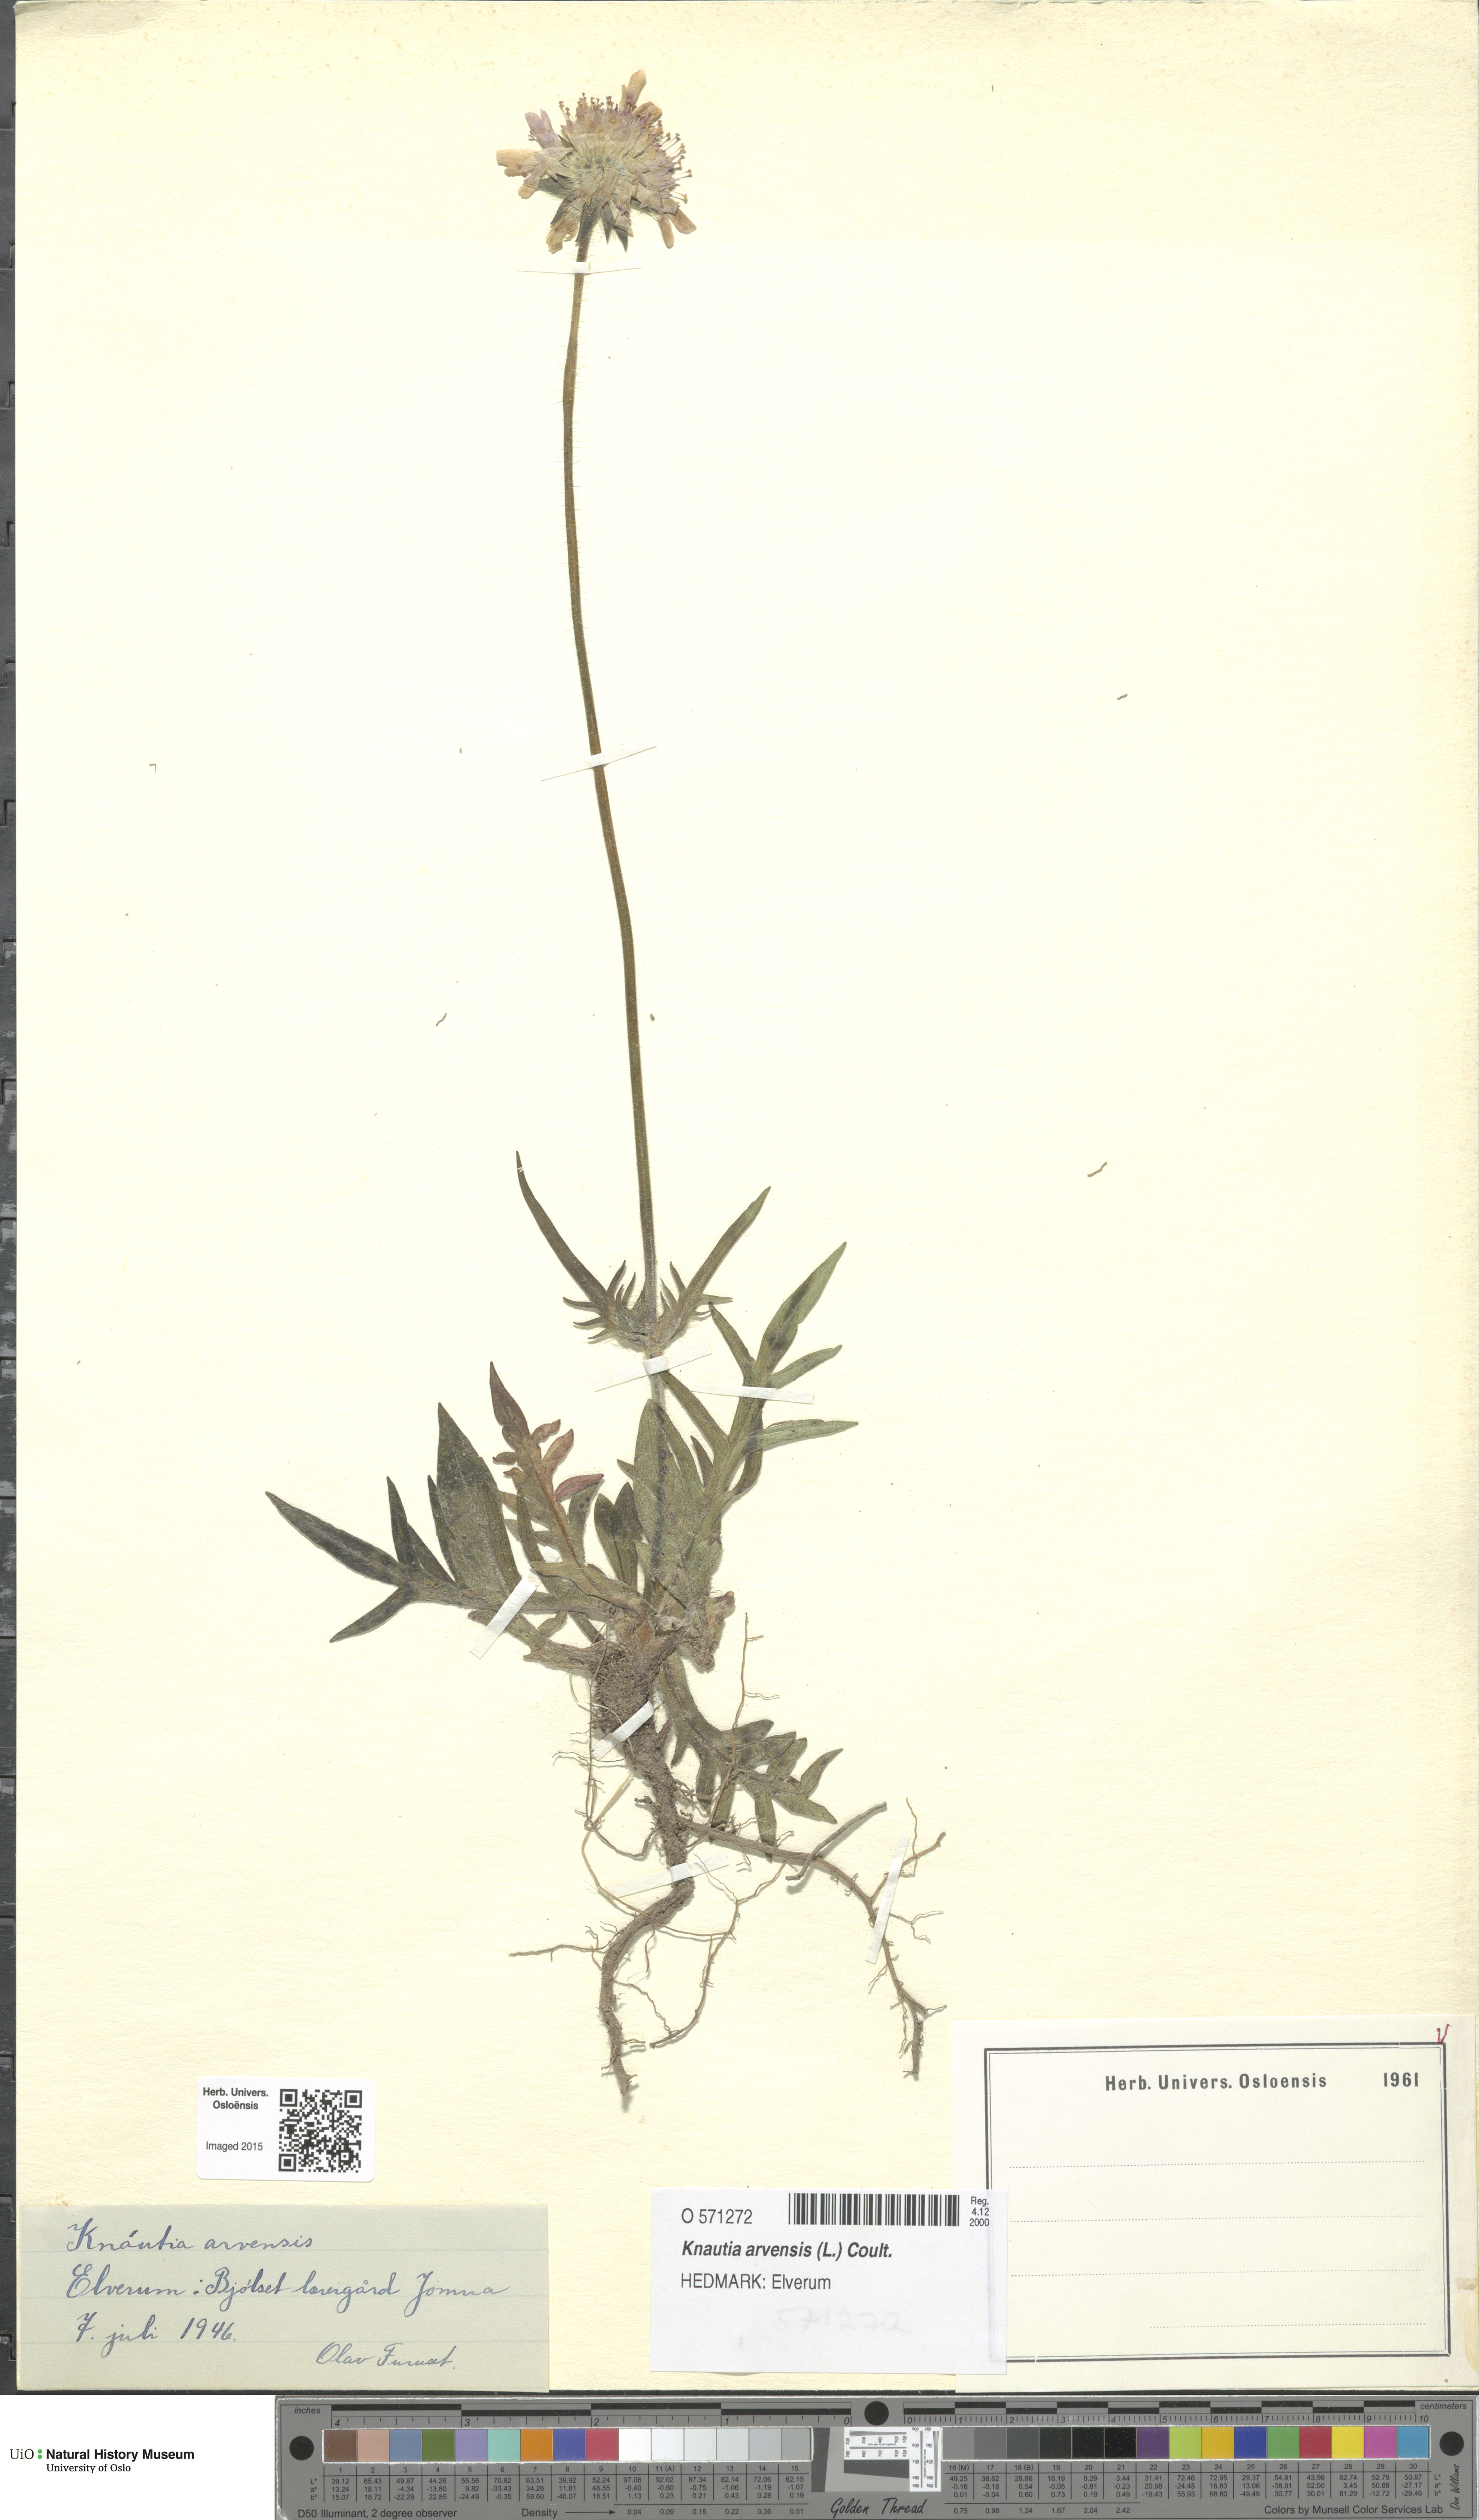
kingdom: Plantae
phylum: Tracheophyta
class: Magnoliopsida
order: Dipsacales
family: Caprifoliaceae
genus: Knautia
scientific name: Knautia arvensis
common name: Field scabiosa
